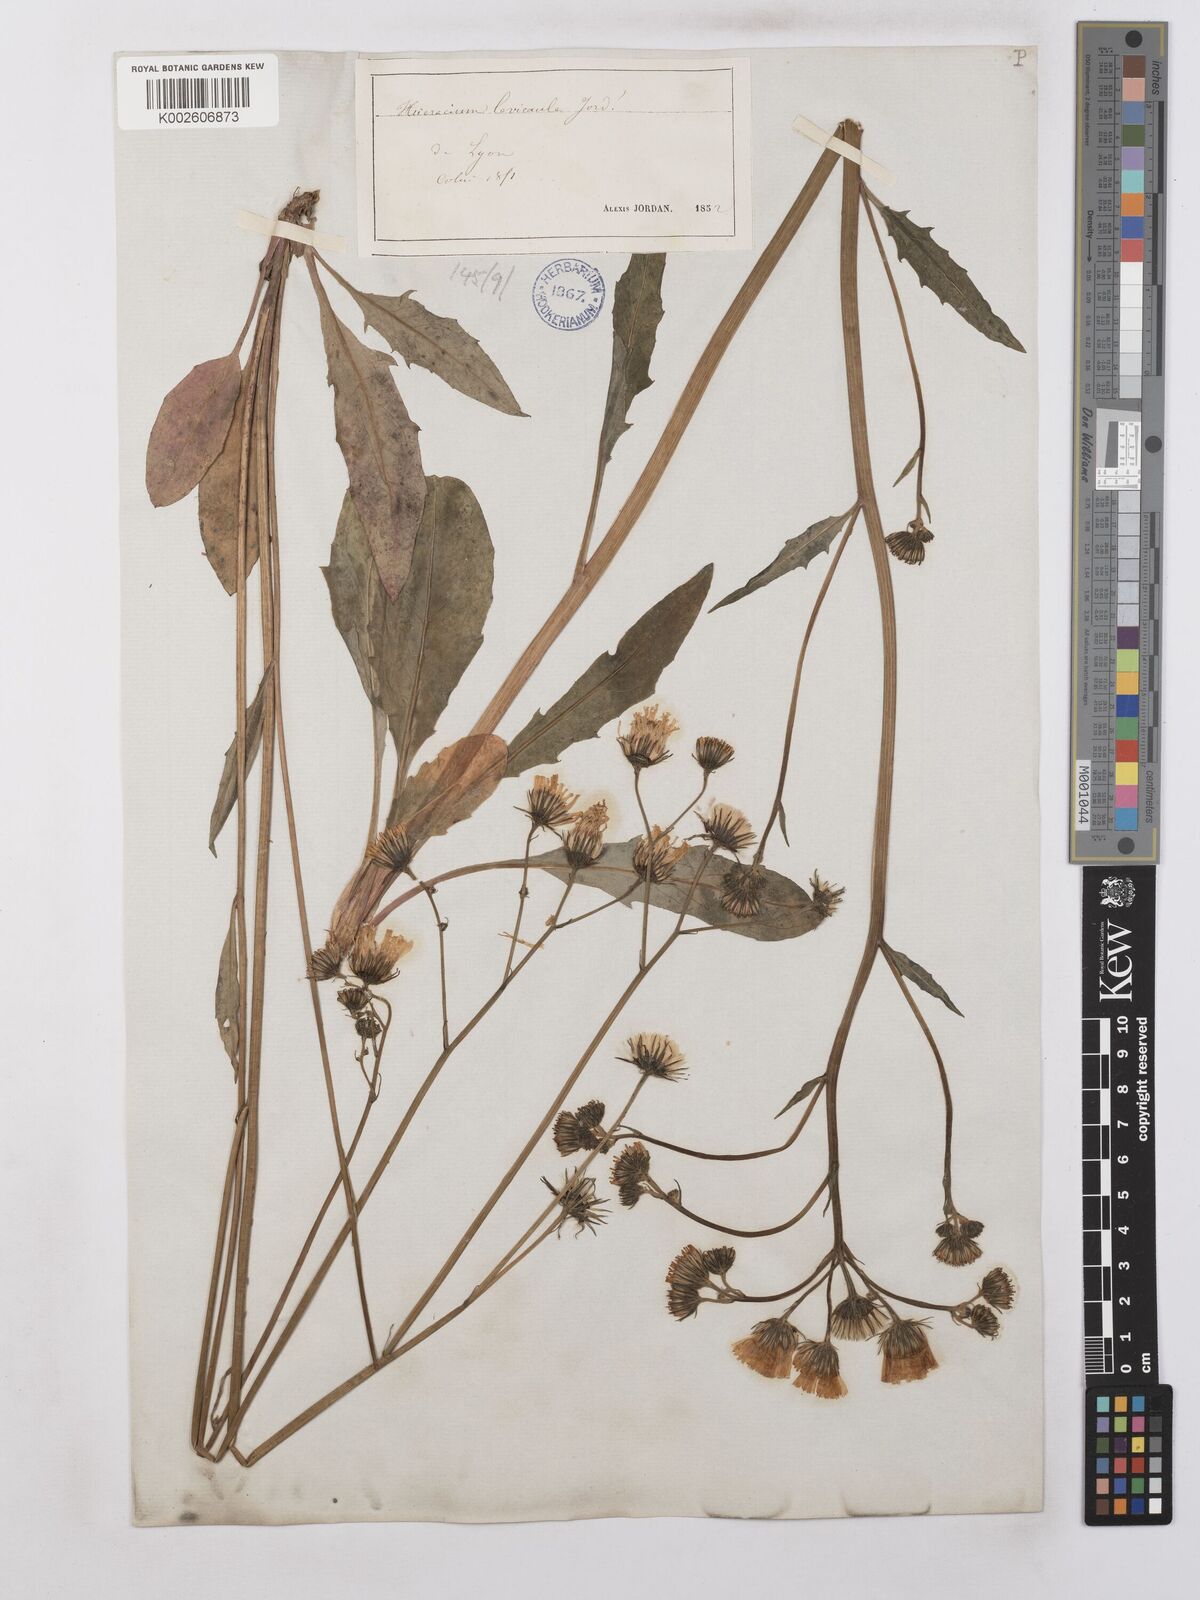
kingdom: Plantae
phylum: Tracheophyta
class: Magnoliopsida
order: Asterales
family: Asteraceae
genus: Hieracium
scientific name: Hieracium levicaule
